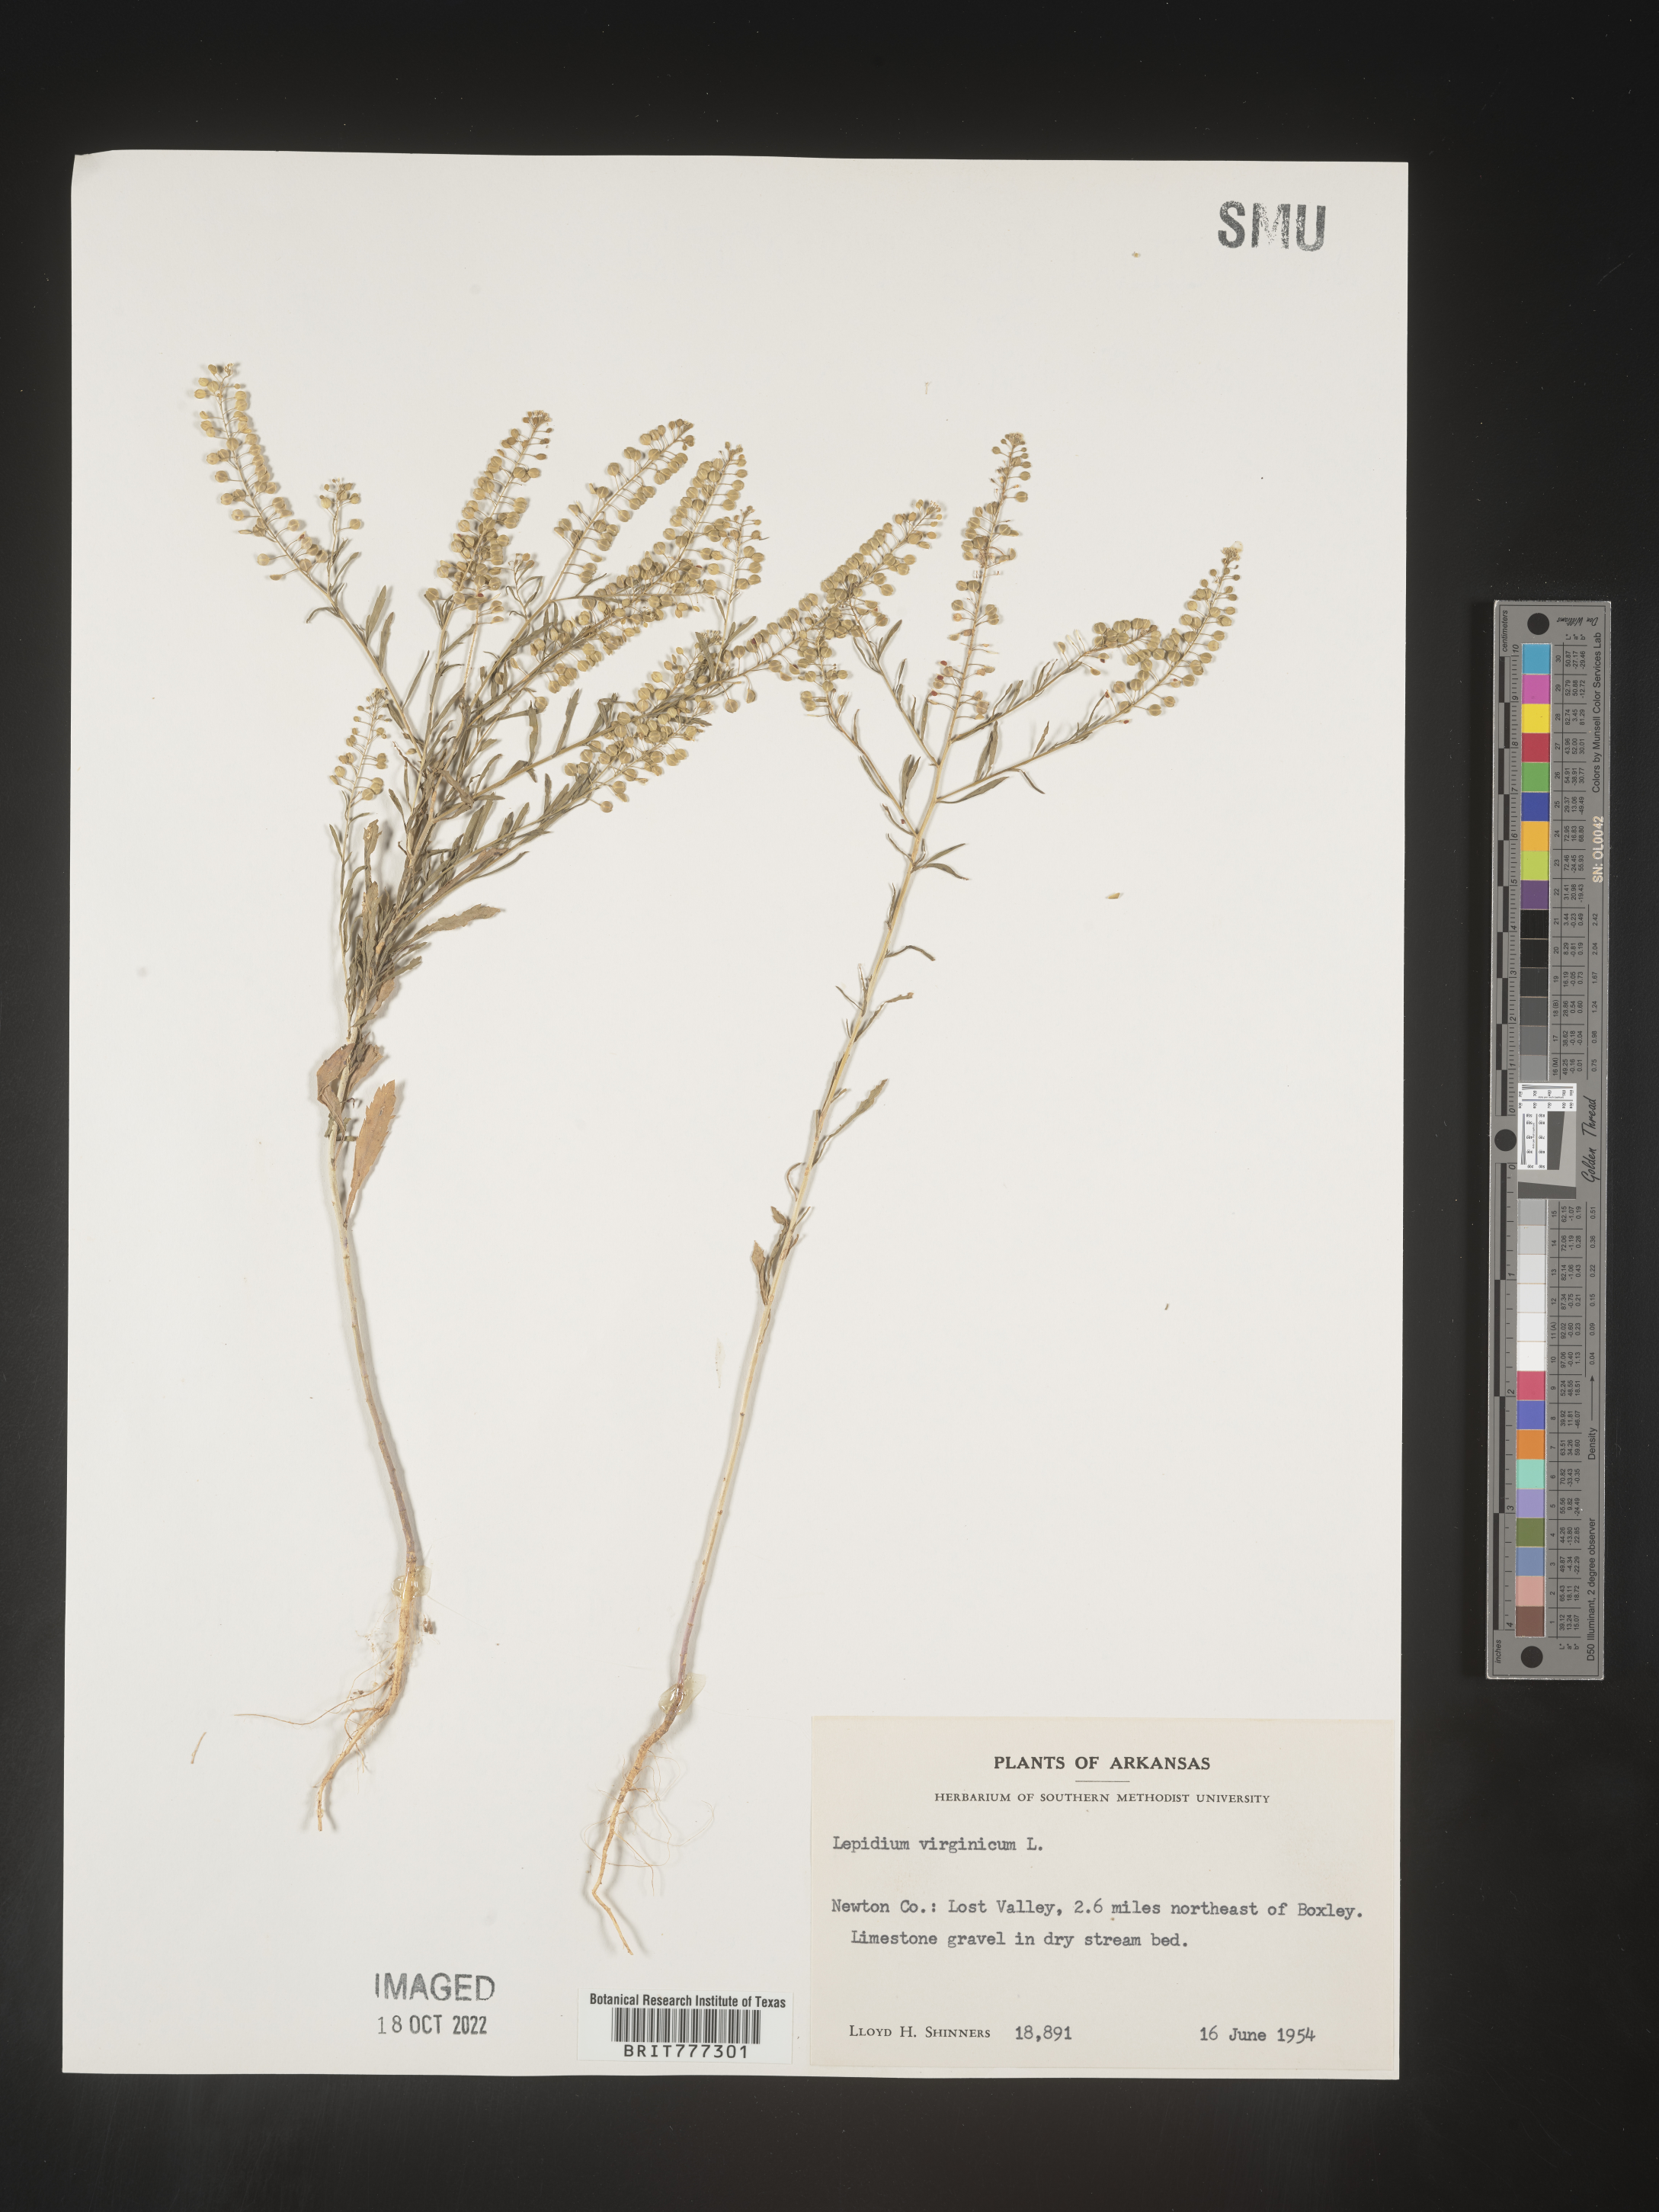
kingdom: Plantae
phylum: Tracheophyta
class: Magnoliopsida
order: Brassicales
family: Brassicaceae
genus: Lepidium
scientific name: Lepidium virginicum
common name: Least pepperwort
